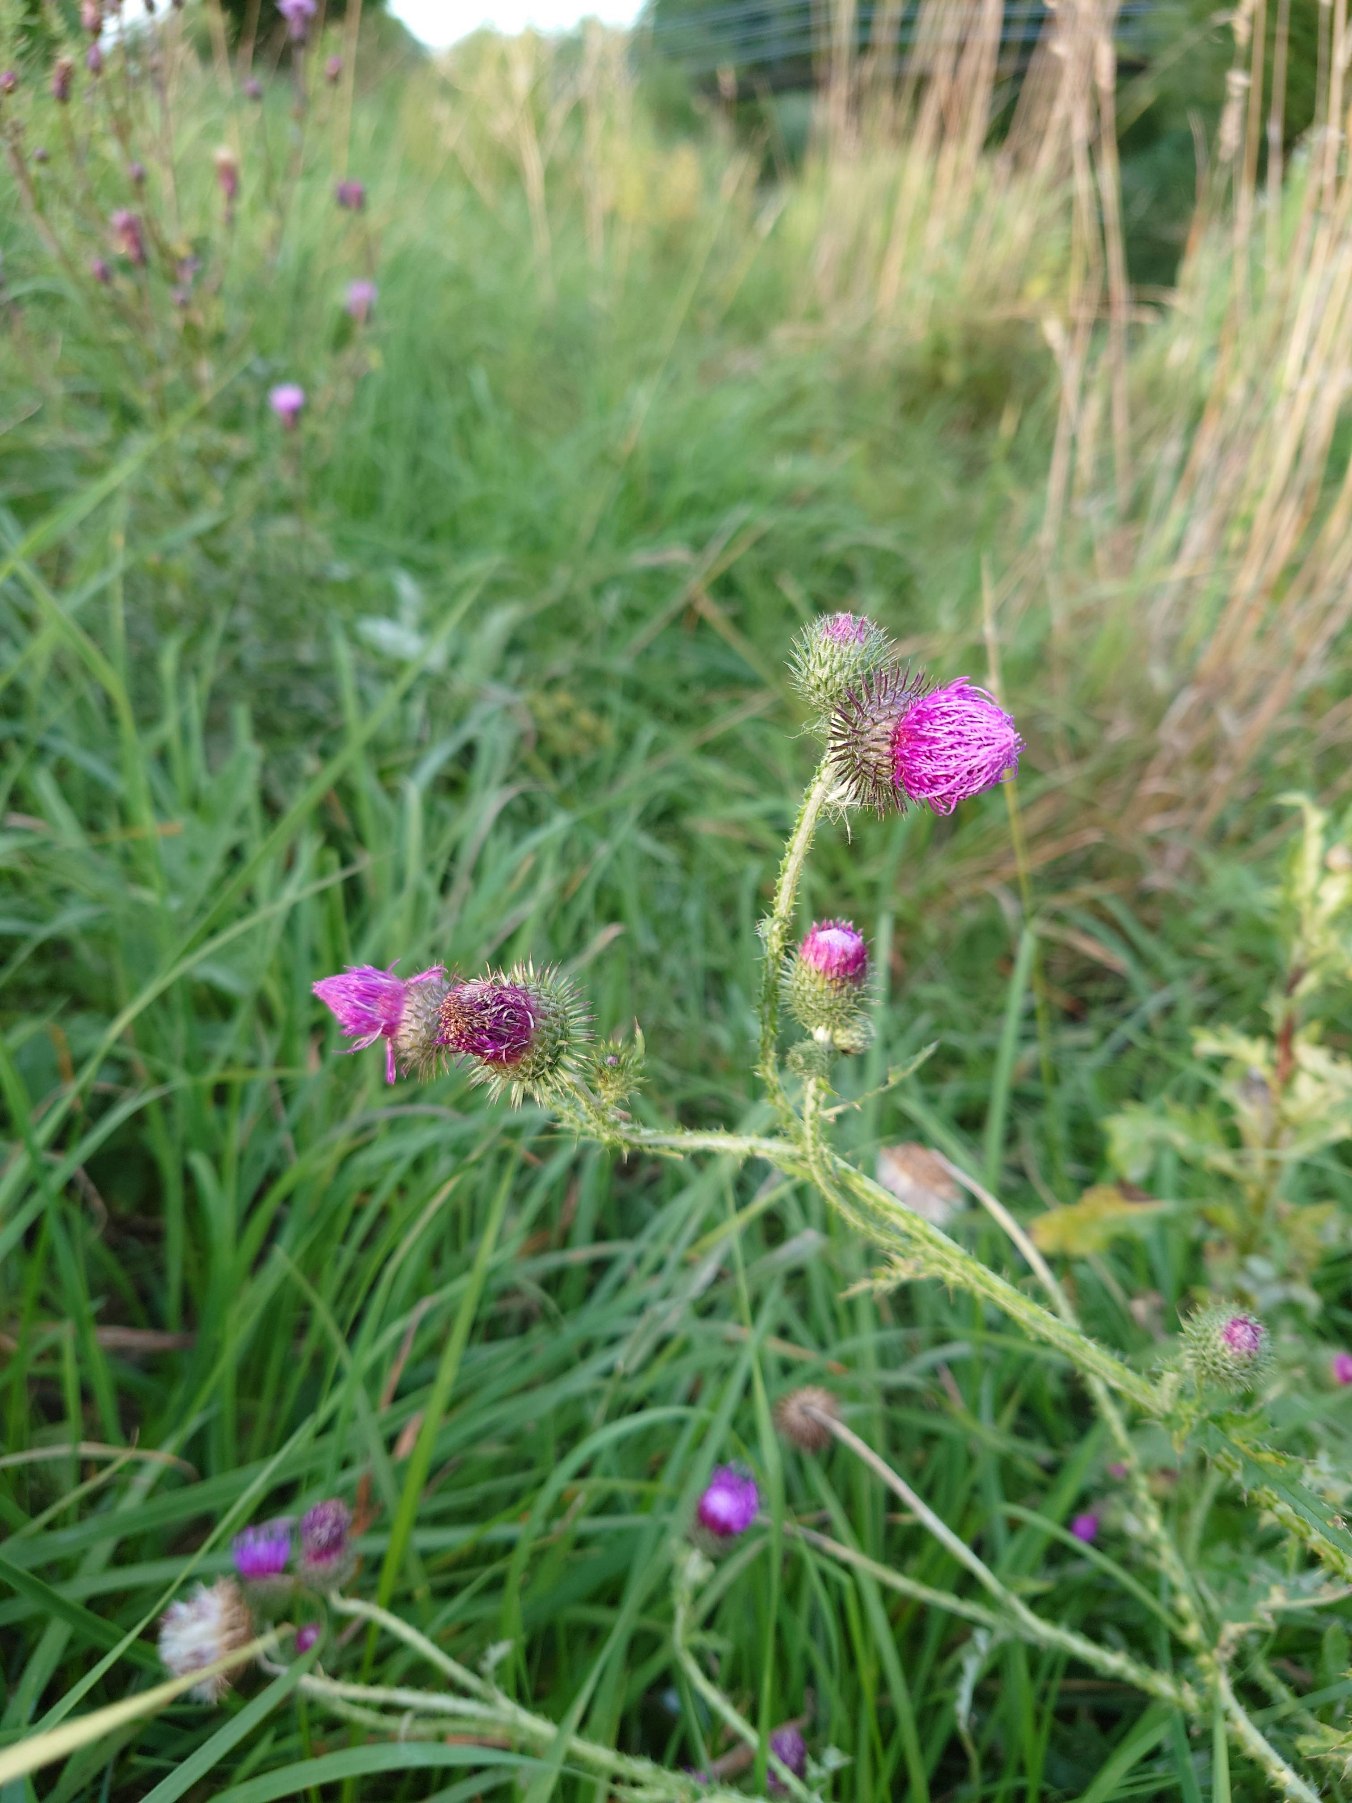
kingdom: Plantae
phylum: Tracheophyta
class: Magnoliopsida
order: Asterales
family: Asteraceae
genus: Carduus
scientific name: Carduus crispus
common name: Kruset tidsel
